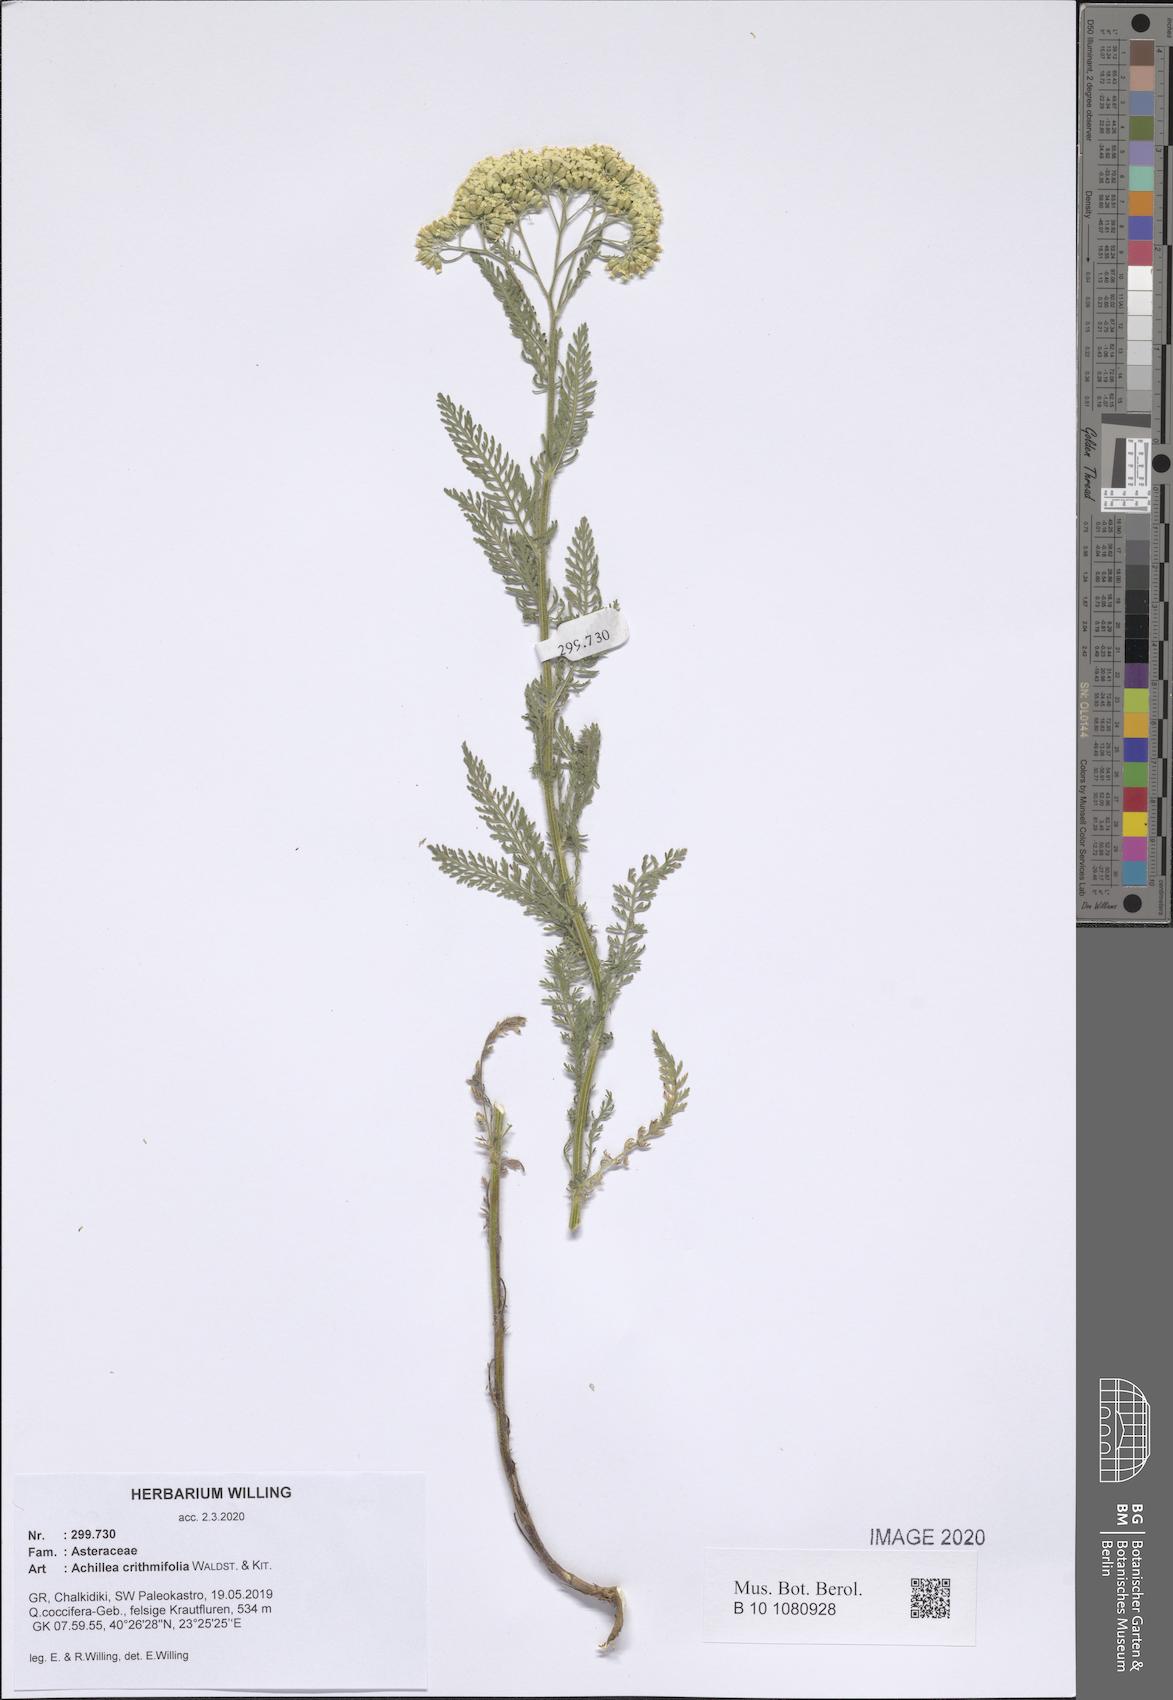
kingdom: Plantae
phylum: Tracheophyta
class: Magnoliopsida
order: Asterales
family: Asteraceae
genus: Achillea
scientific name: Achillea crithmifolia
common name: Yarrow
